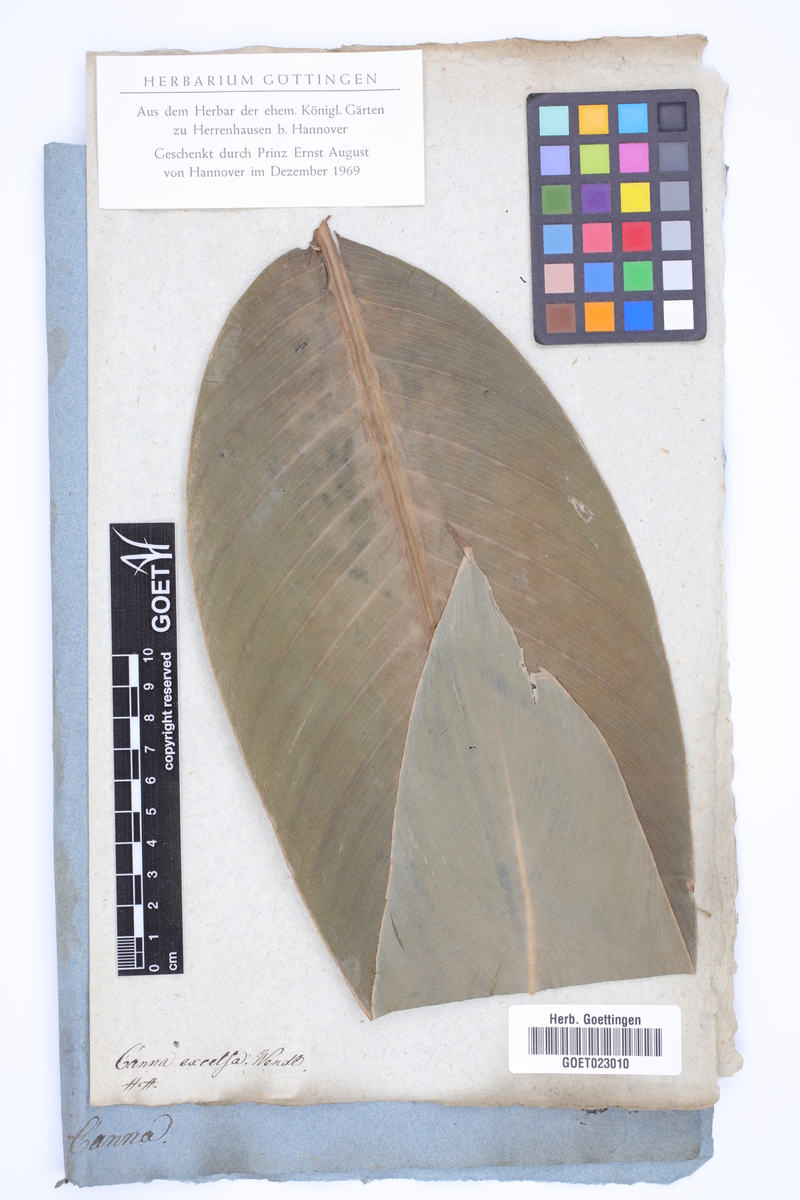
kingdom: Plantae
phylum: Tracheophyta
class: Liliopsida
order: Zingiberales
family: Cannaceae
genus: Canna
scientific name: Canna paniculata
